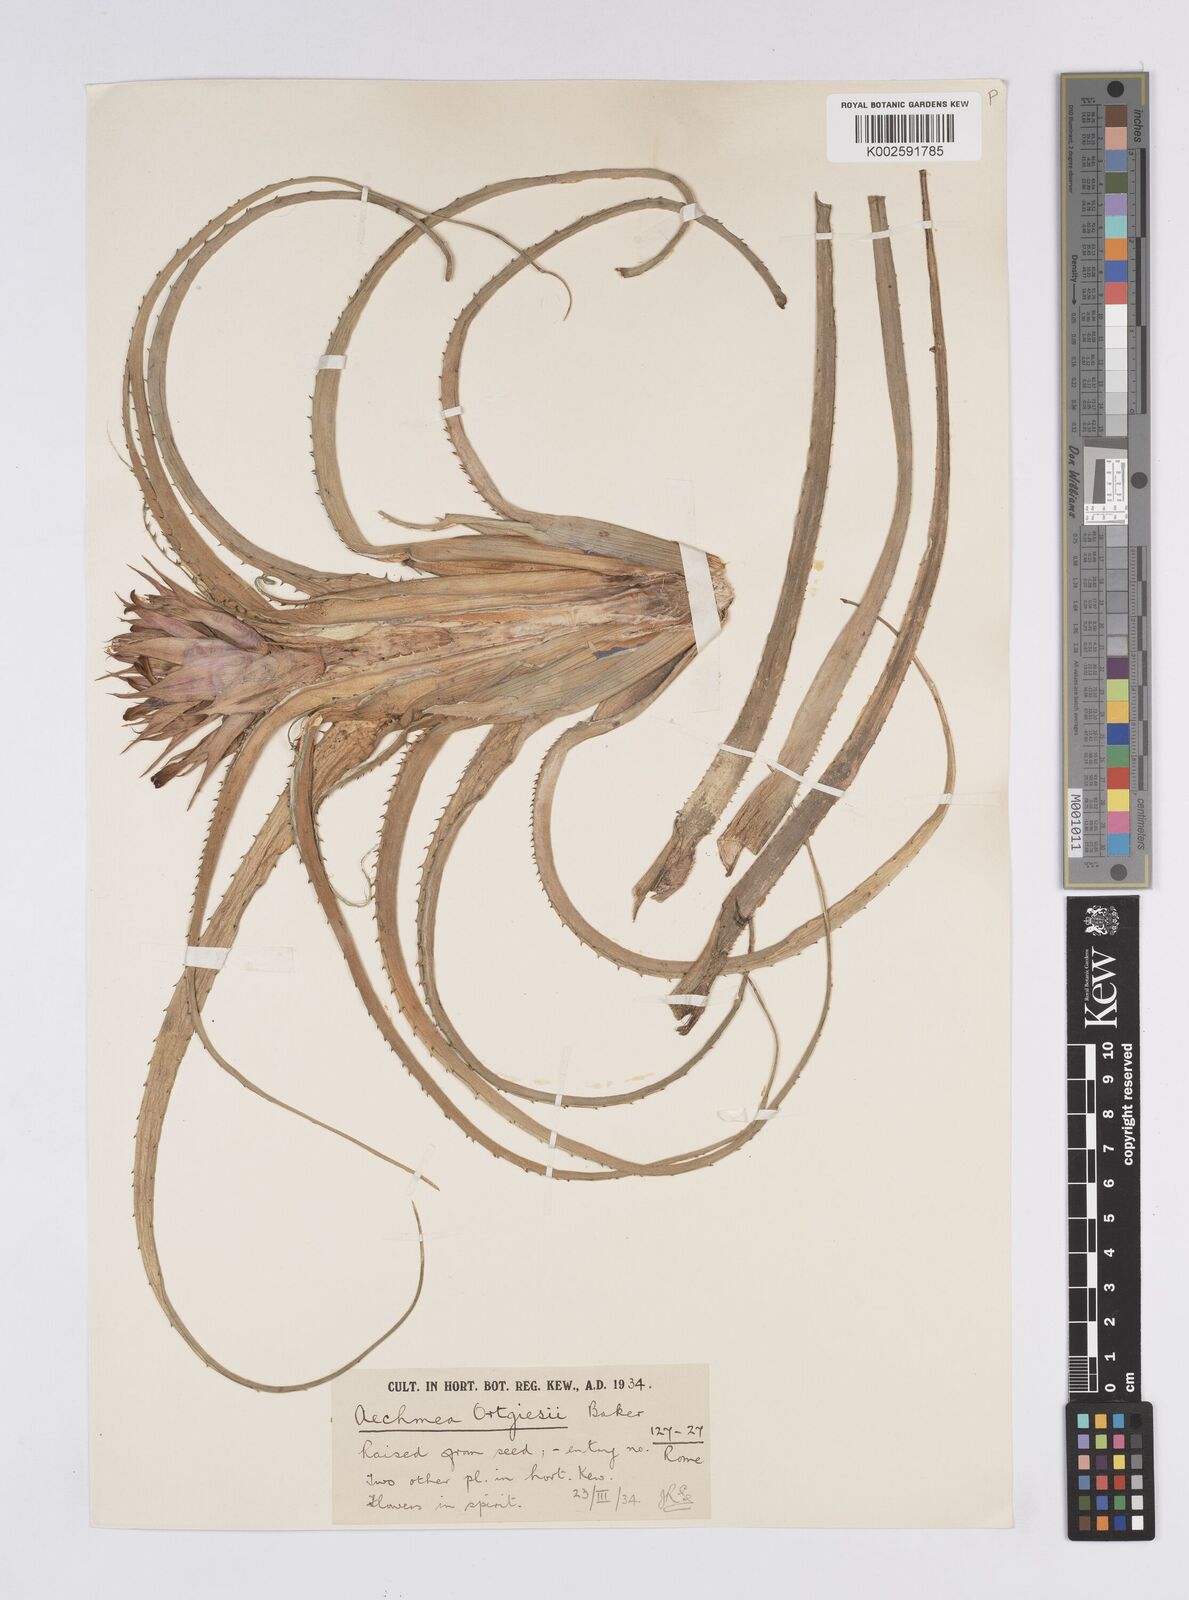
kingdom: Plantae
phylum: Tracheophyta
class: Liliopsida
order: Poales
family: Bromeliaceae
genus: Aechmea
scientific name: Aechmea recurvata
